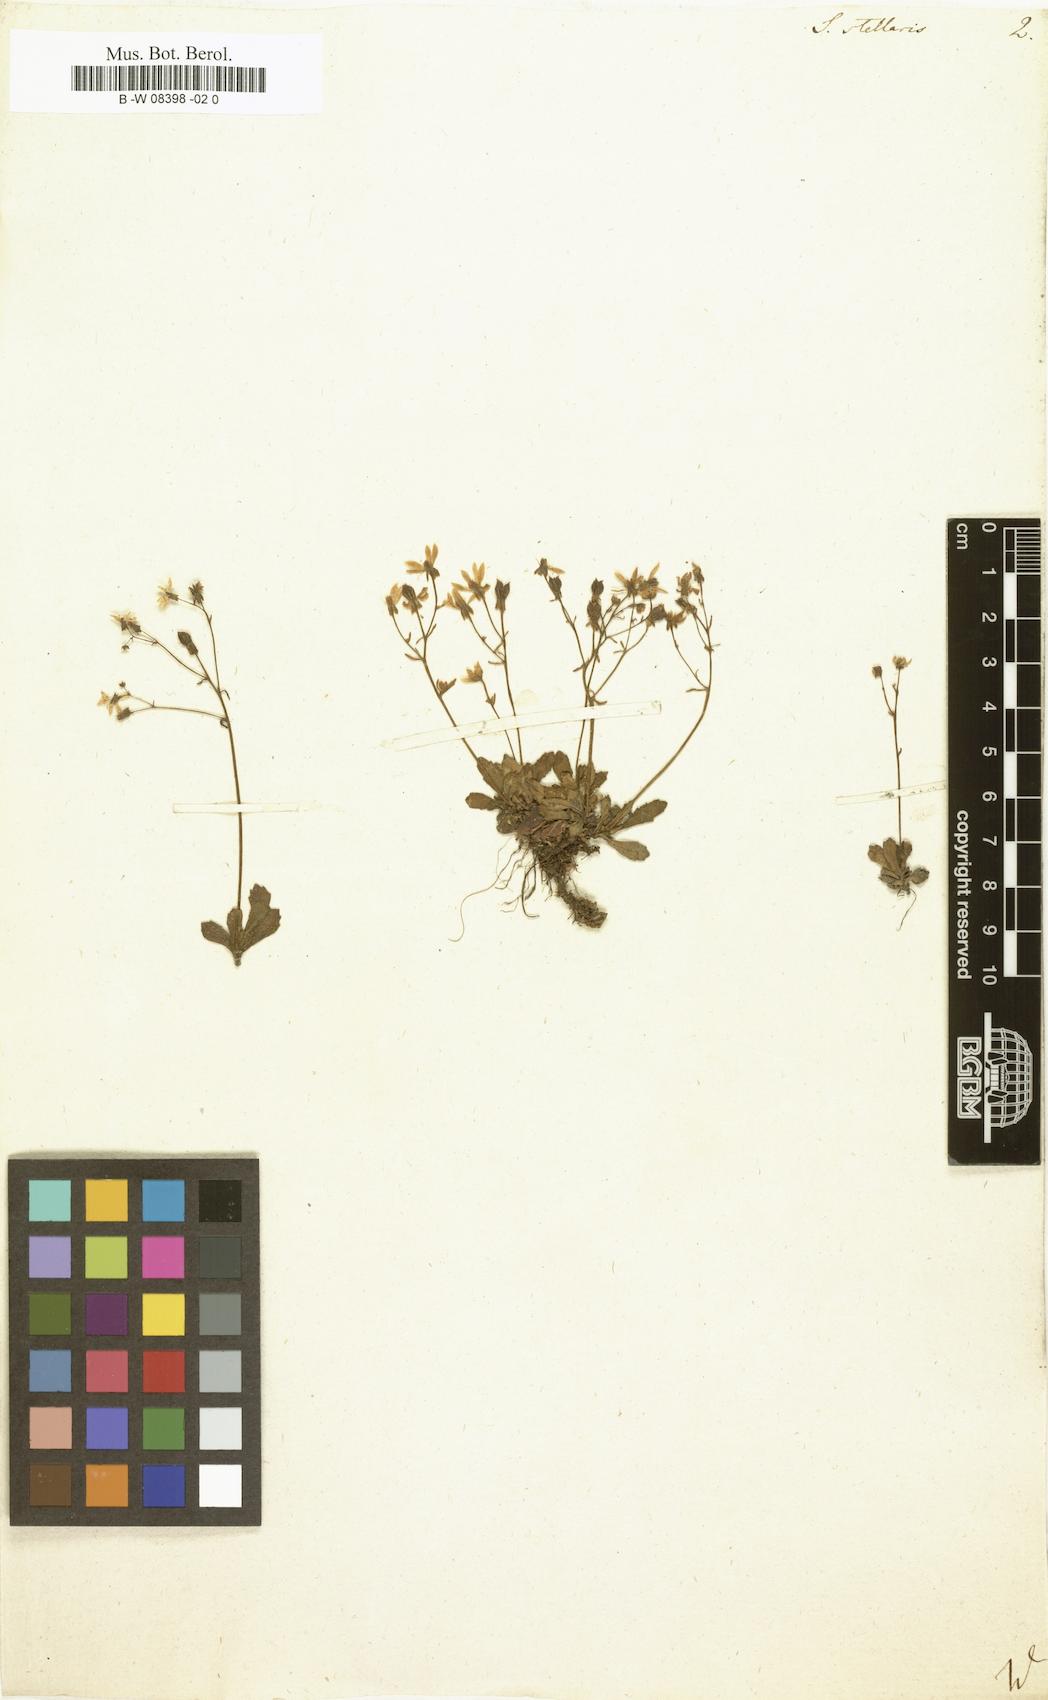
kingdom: Plantae
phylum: Tracheophyta
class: Magnoliopsida
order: Saxifragales
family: Saxifragaceae
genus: Micranthes
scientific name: Micranthes stellaris
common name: Starry saxifrage
